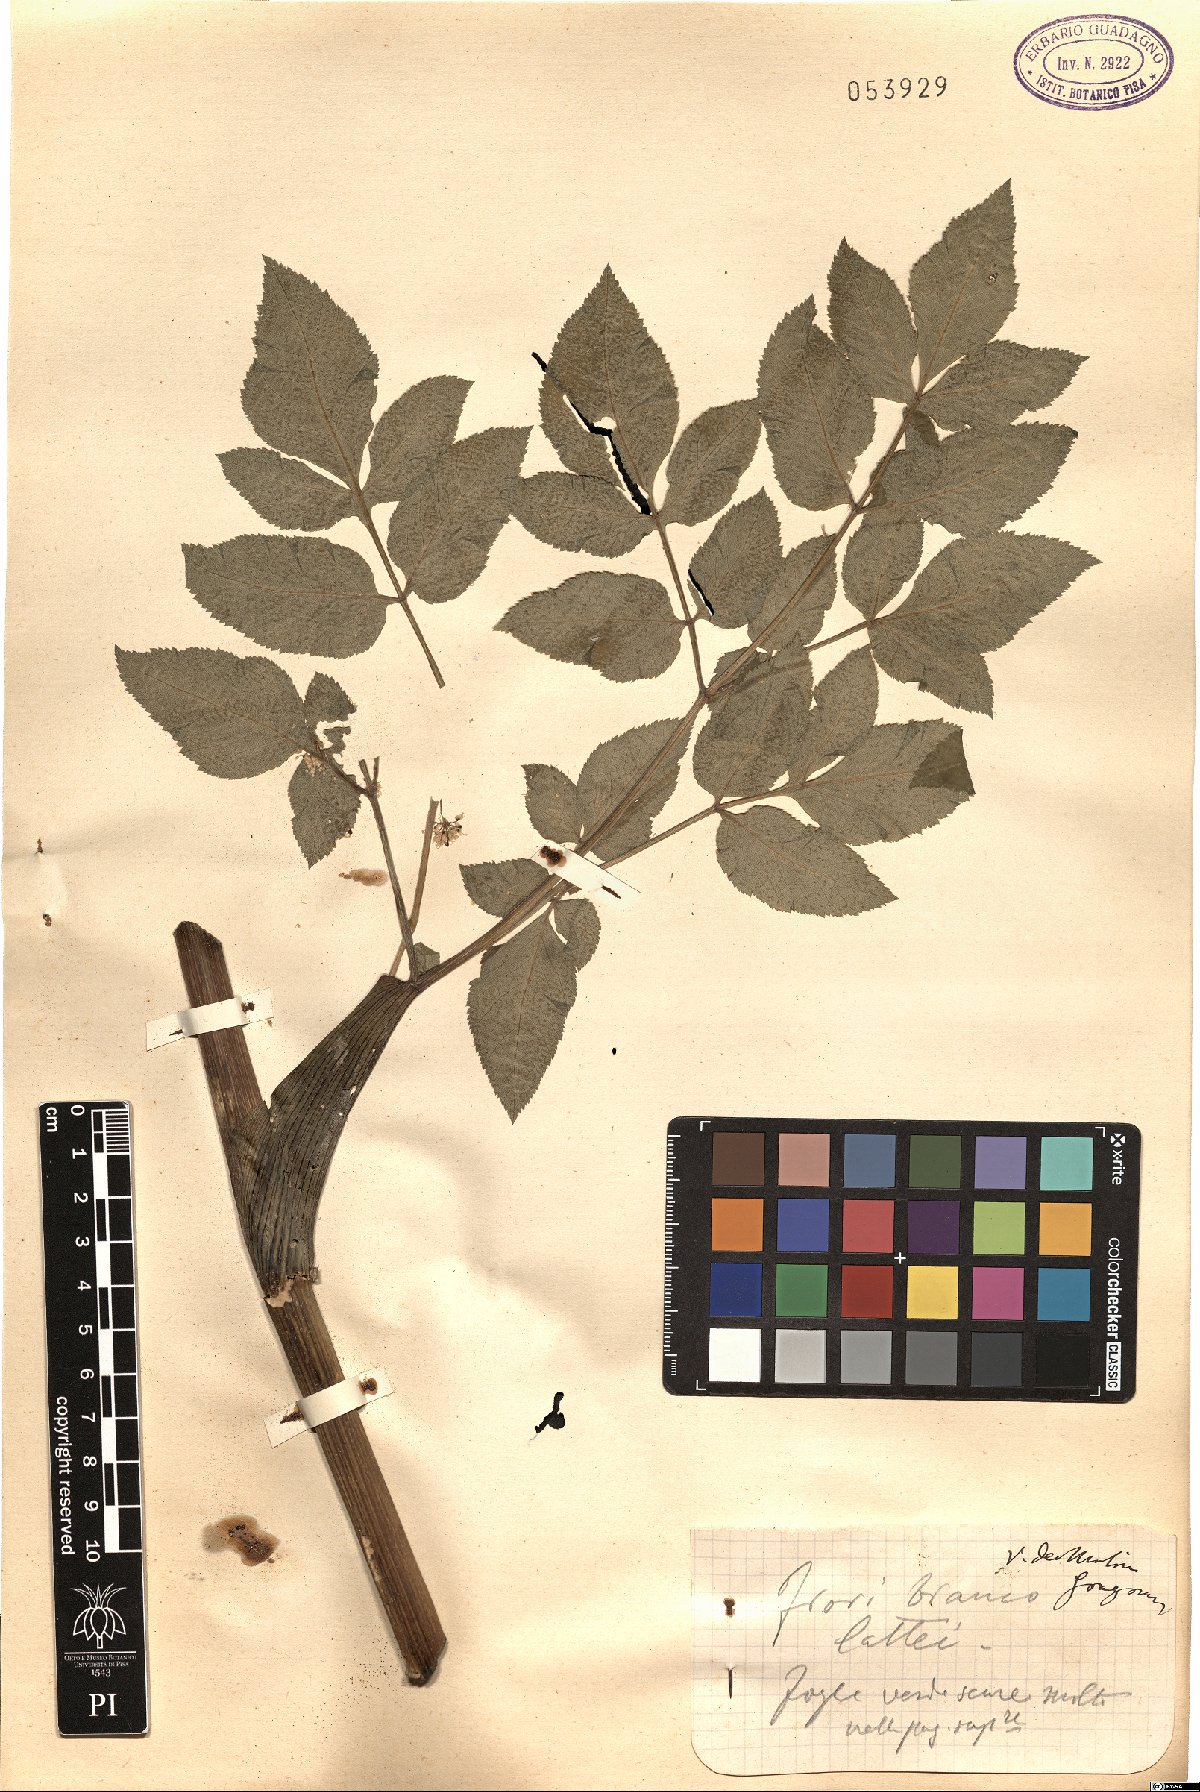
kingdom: Plantae
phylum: Tracheophyta
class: Magnoliopsida
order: Apiales
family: Apiaceae
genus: Angelica
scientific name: Angelica
